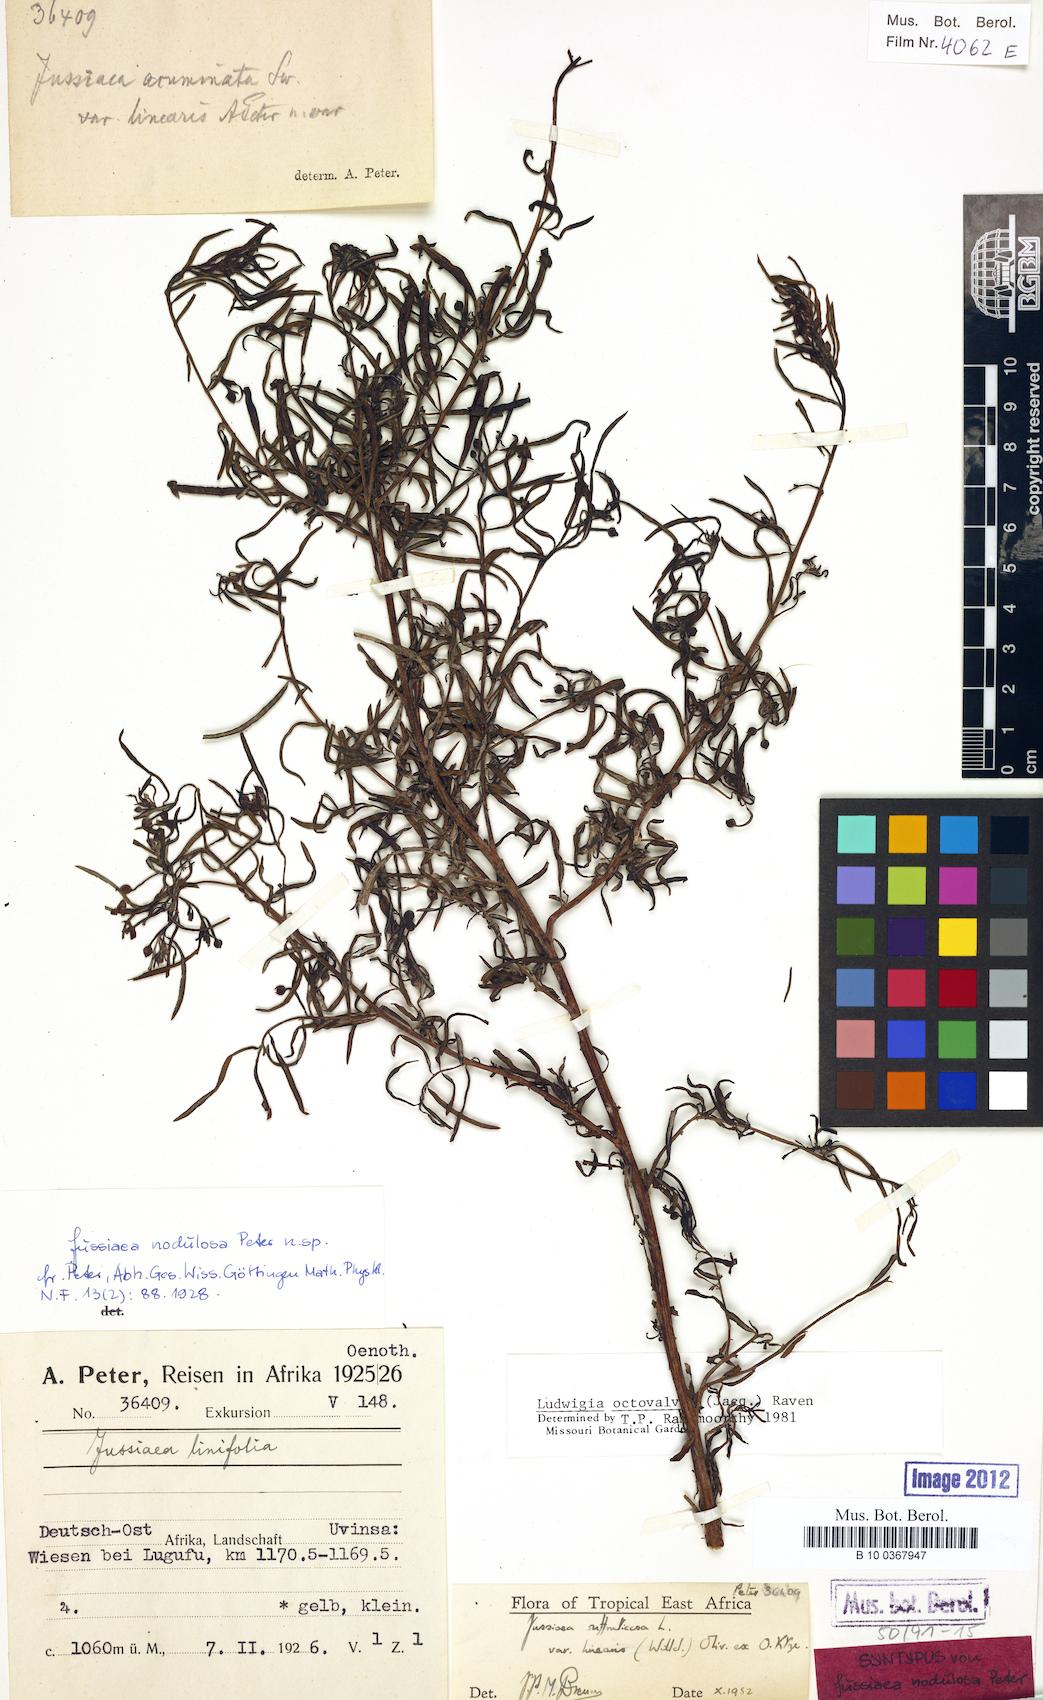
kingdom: Plantae
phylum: Tracheophyta
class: Magnoliopsida
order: Myrtales
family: Onagraceae
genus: Ludwigia
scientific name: Ludwigia octovalvis
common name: Water-primrose
